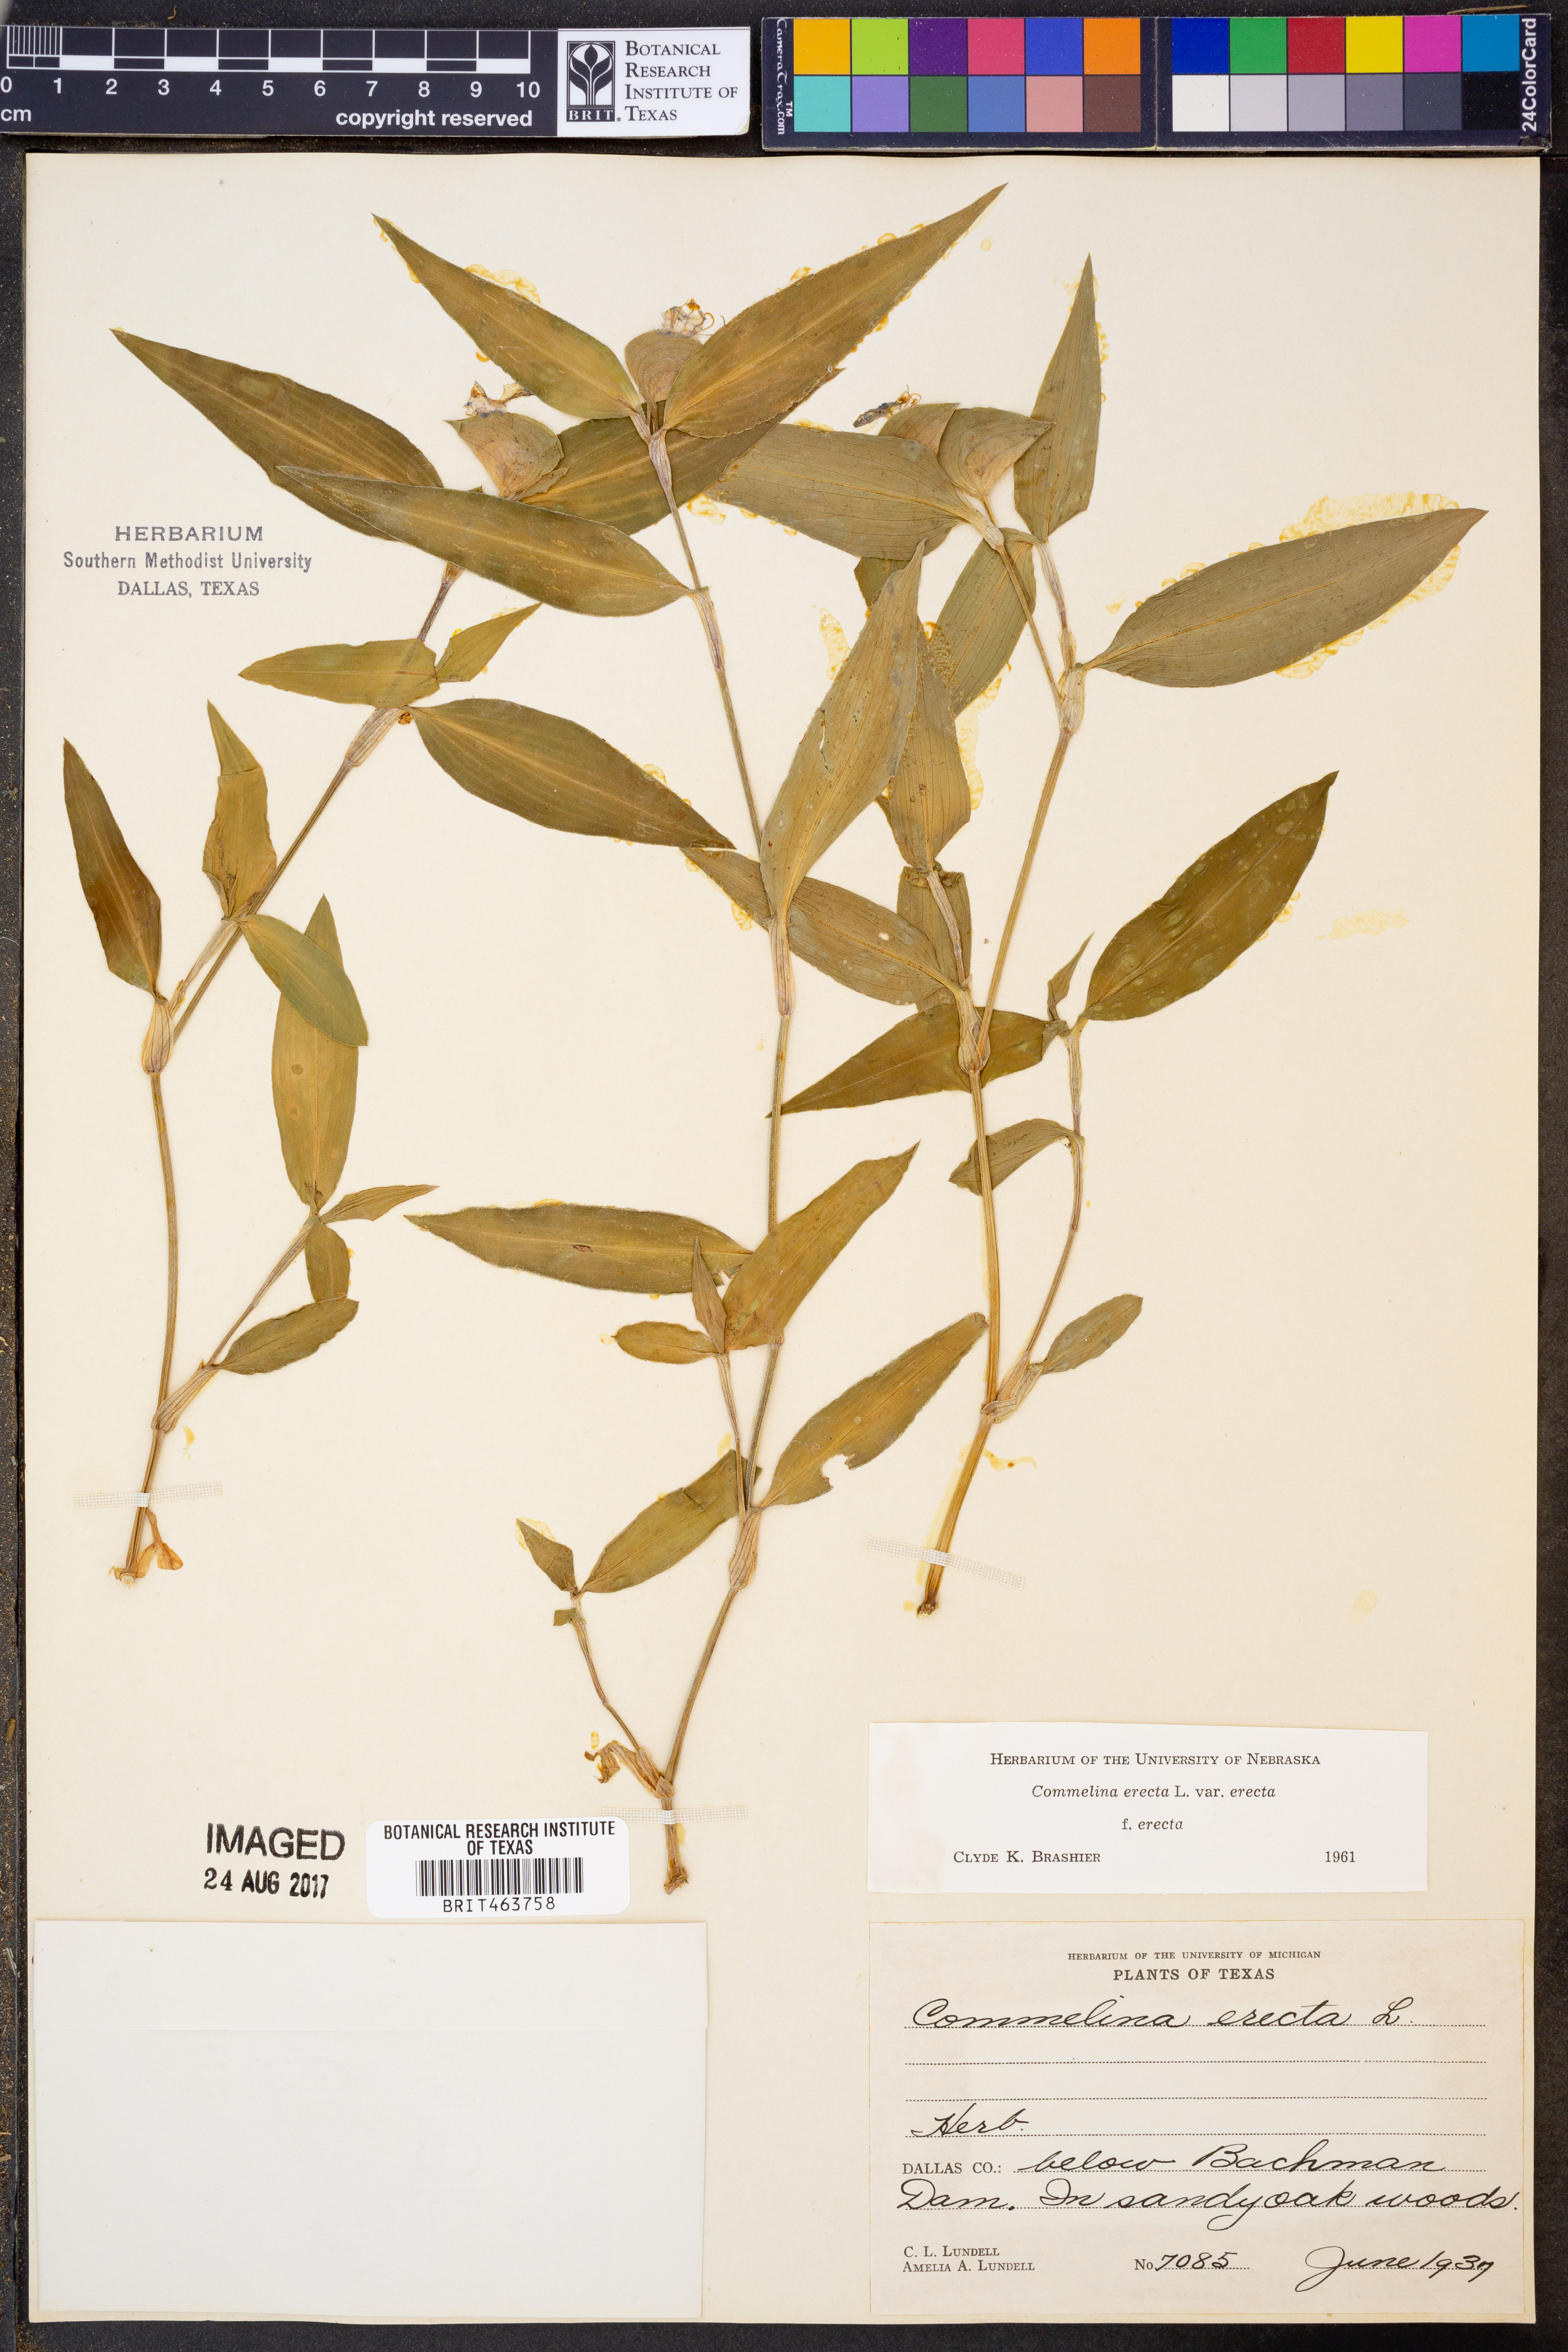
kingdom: Plantae
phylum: Tracheophyta
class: Liliopsida
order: Commelinales
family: Commelinaceae
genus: Commelina
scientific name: Commelina erecta
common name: Blousel blommetjie
